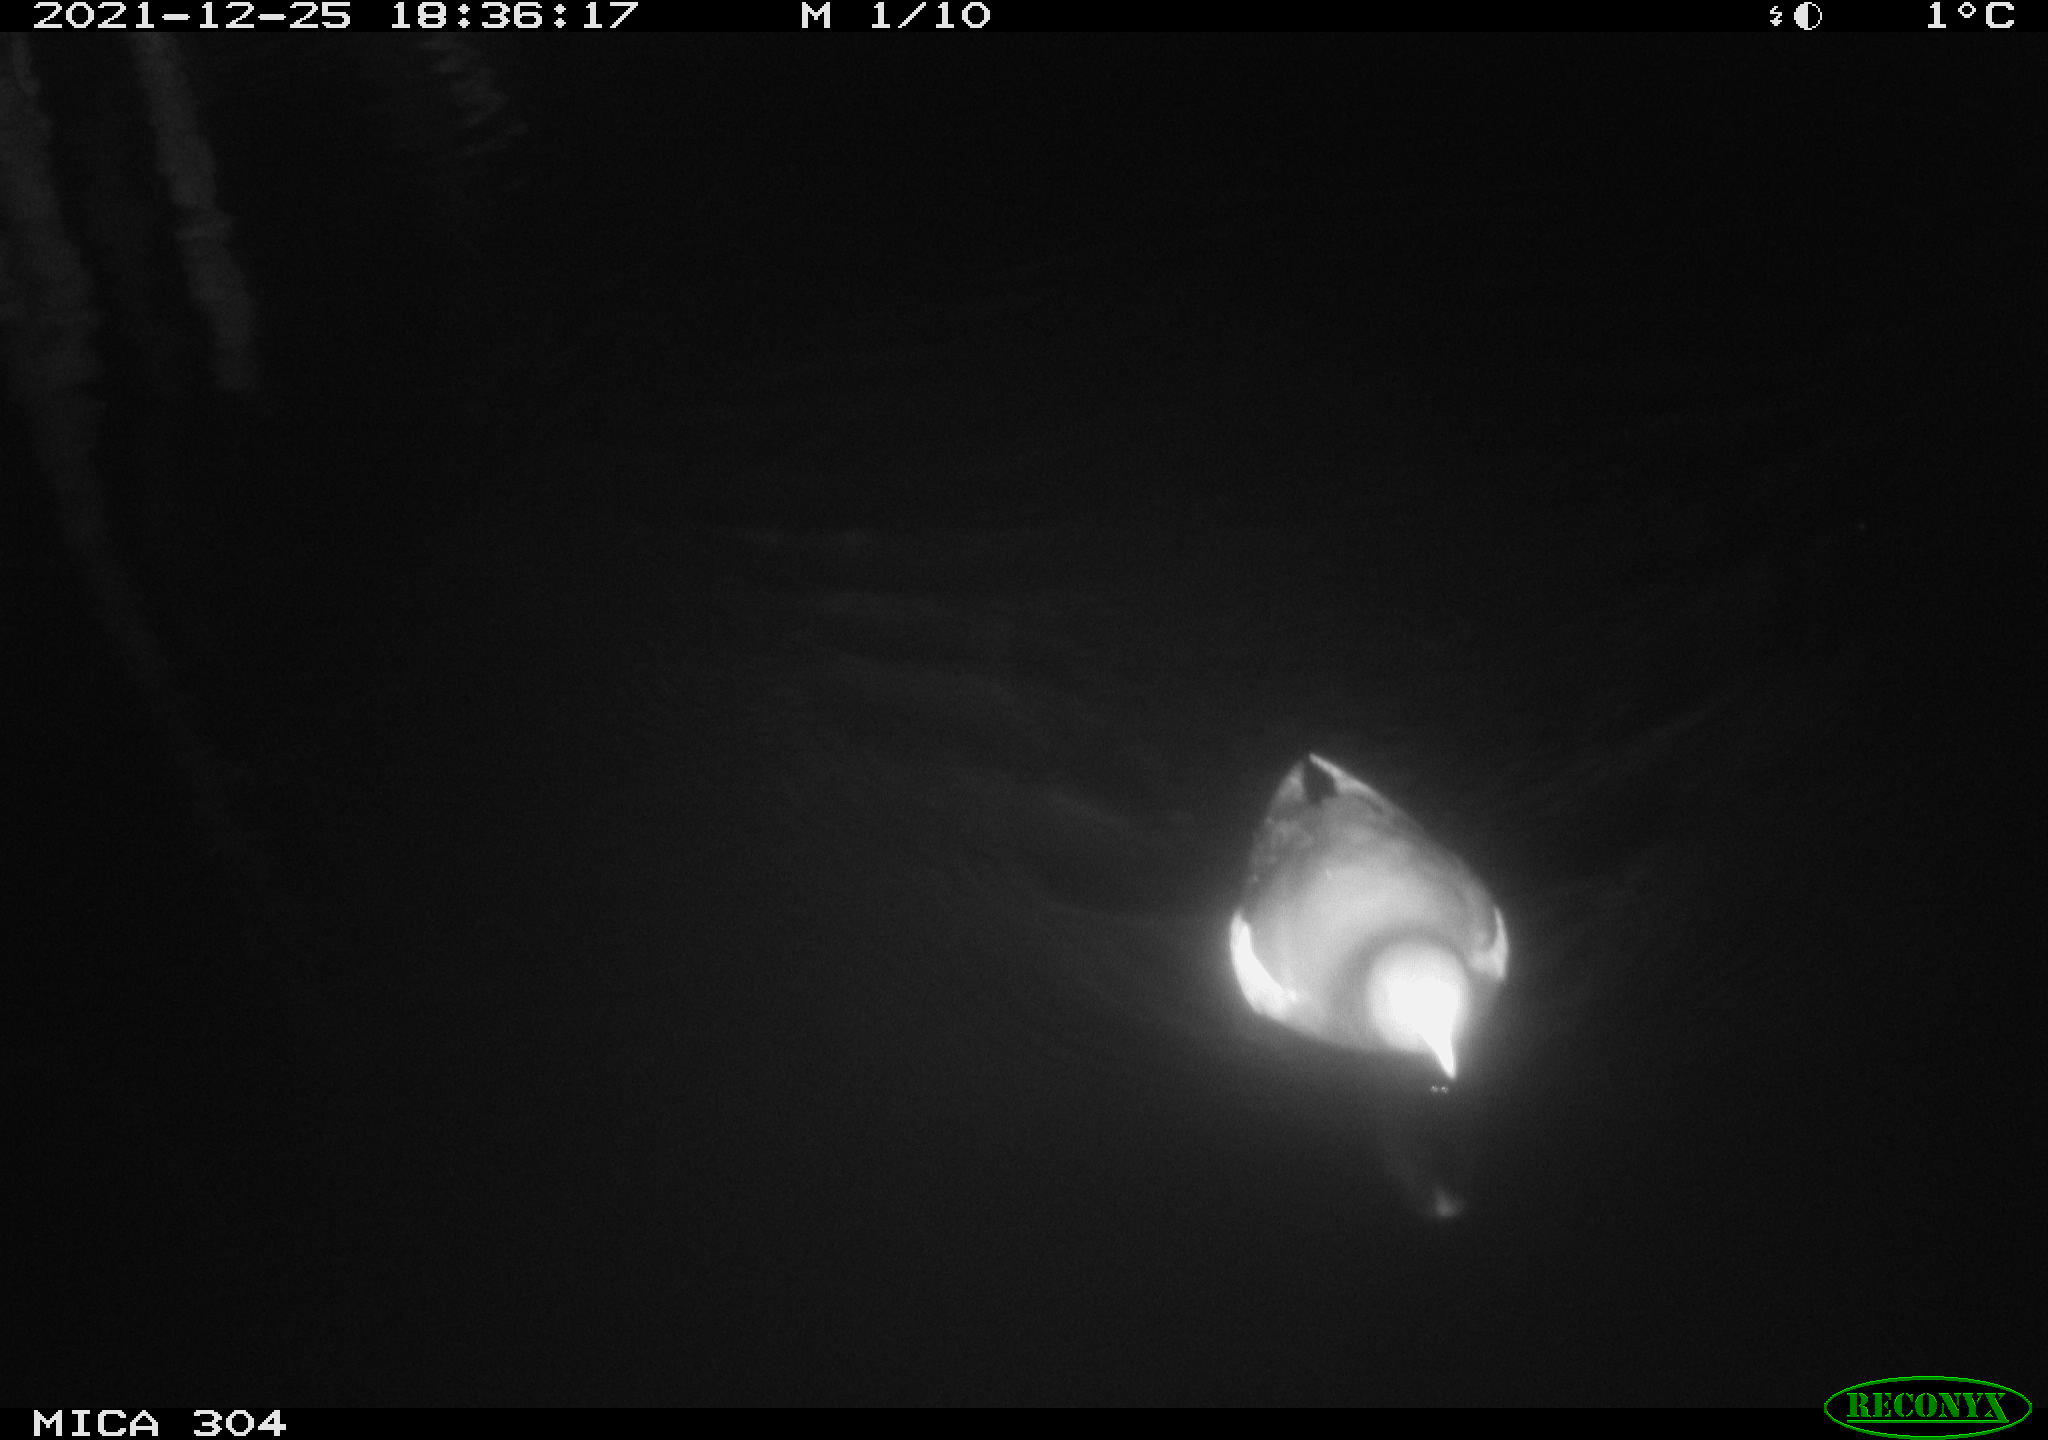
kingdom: Animalia
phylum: Chordata
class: Aves
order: Anseriformes
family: Anatidae
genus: Anas
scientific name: Anas
